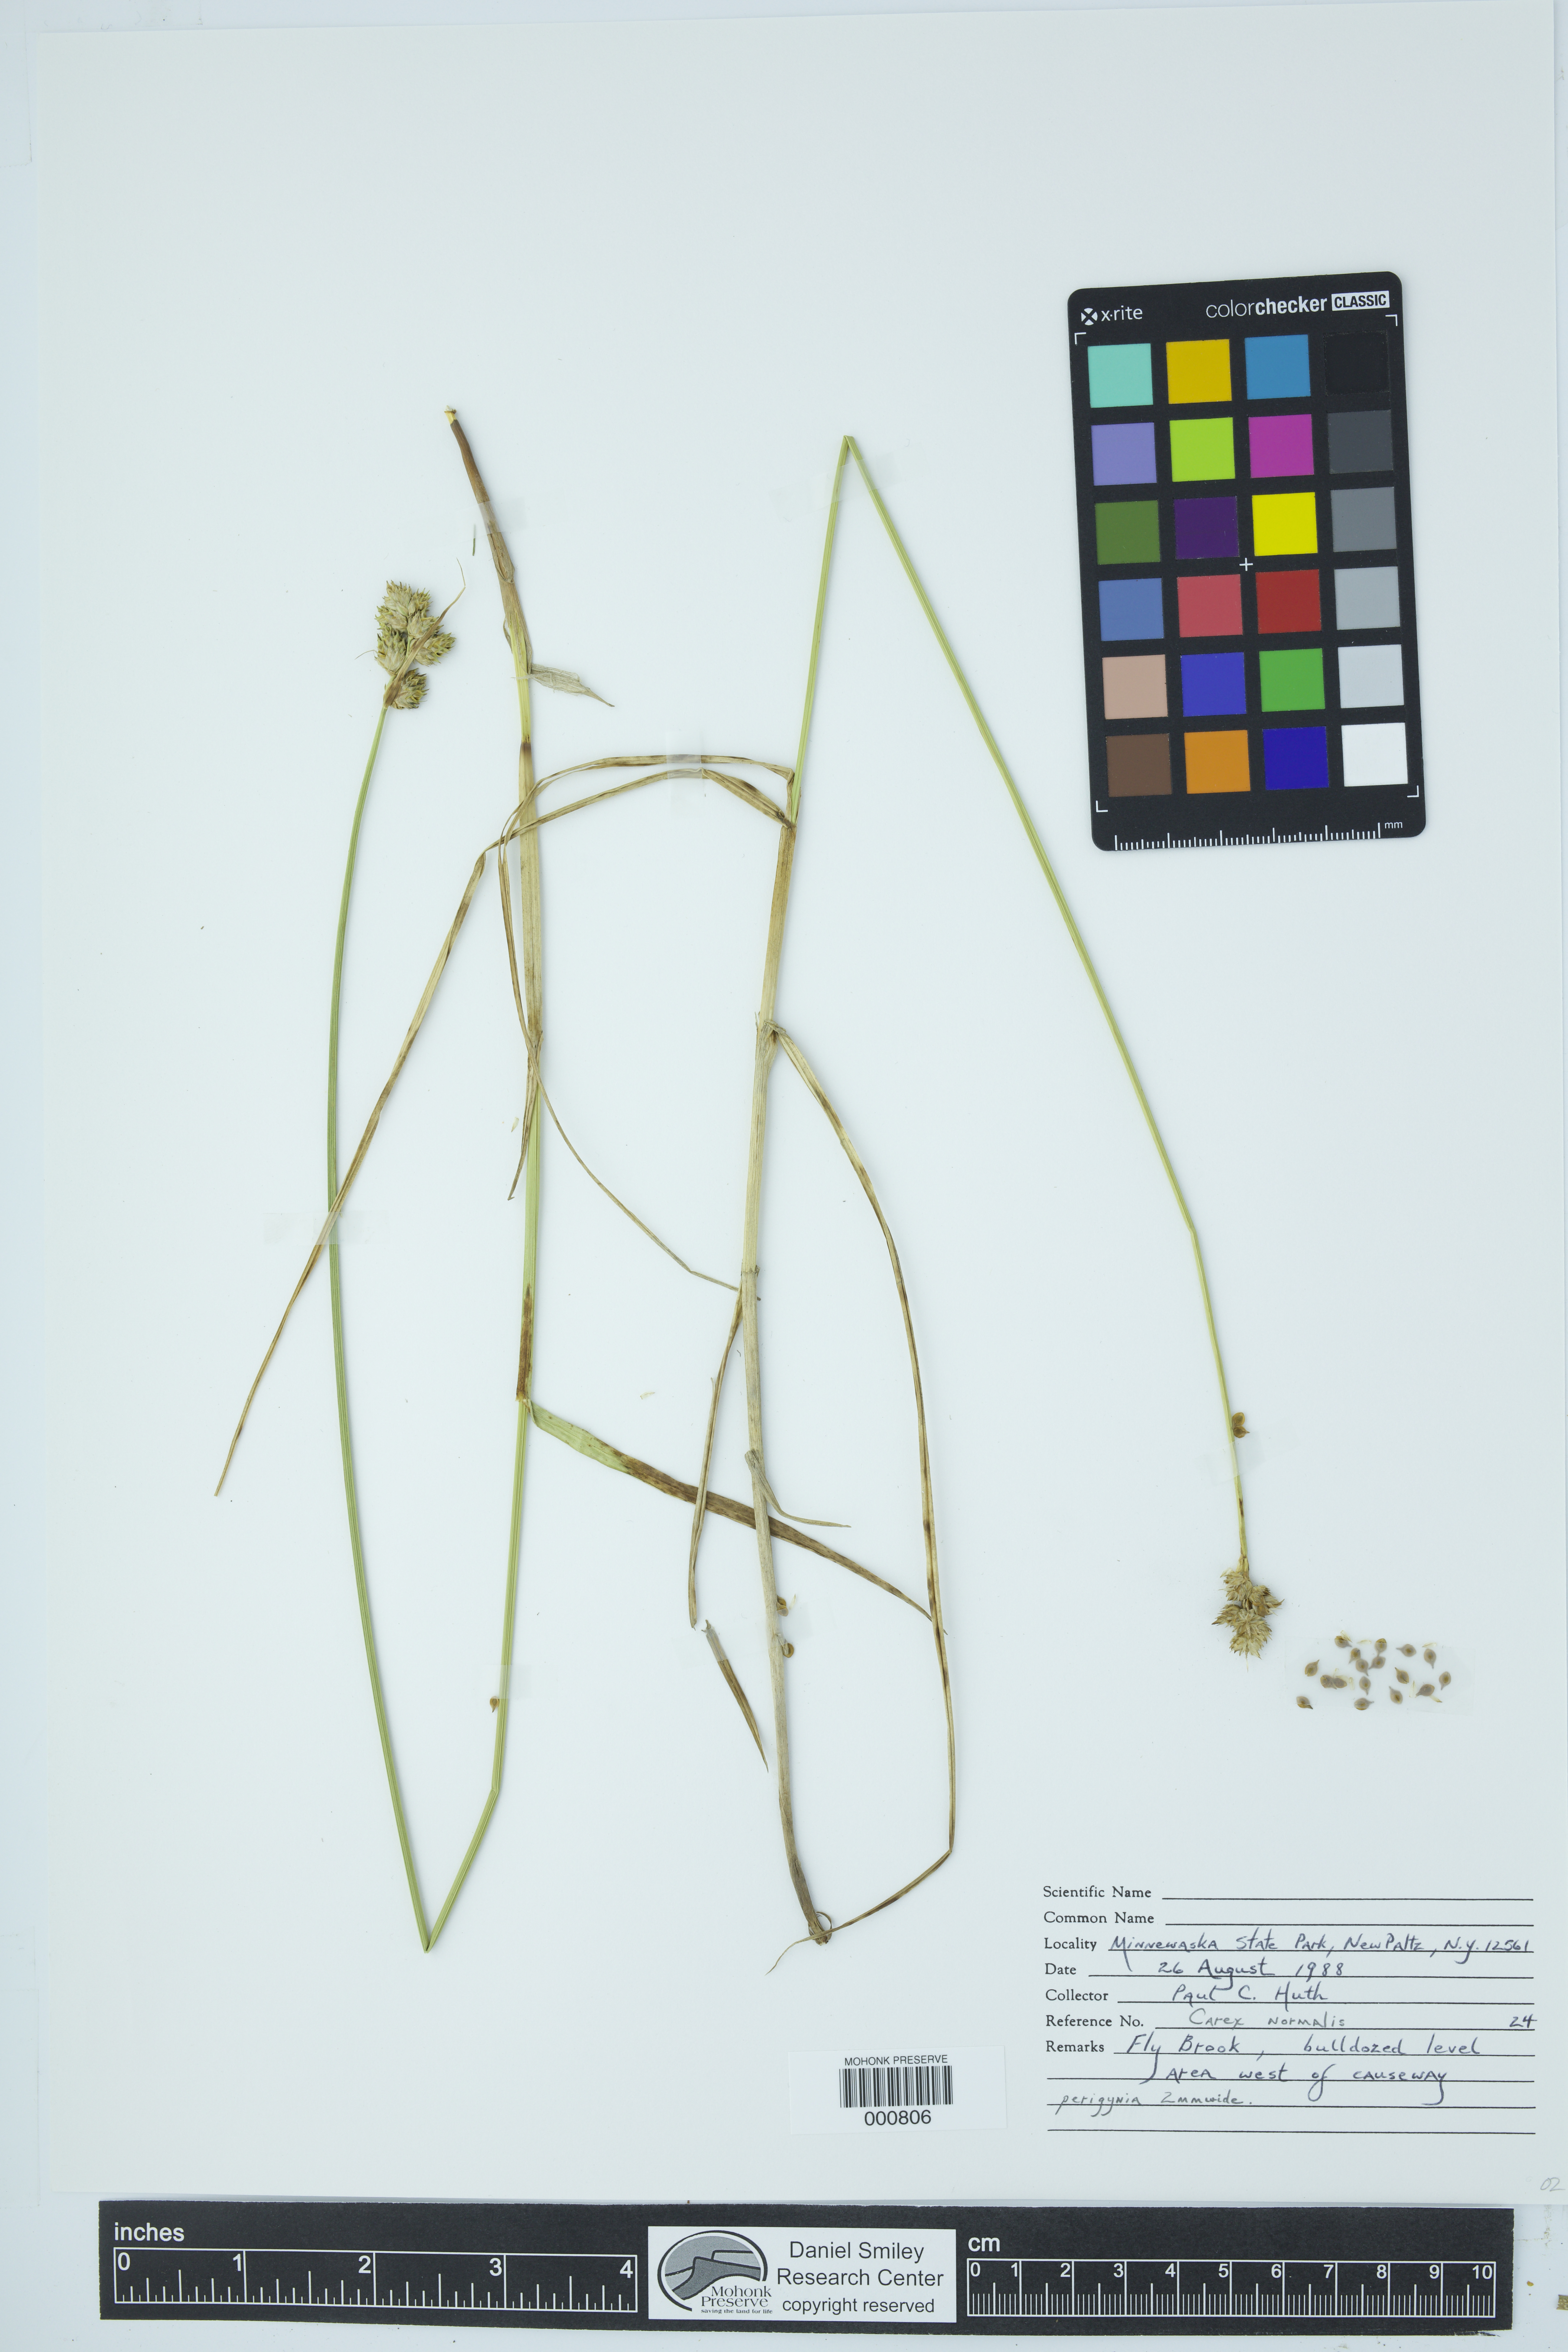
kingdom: Plantae
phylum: Tracheophyta
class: Liliopsida
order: Poales
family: Cyperaceae
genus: Carex
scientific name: Carex normalis
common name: Greater straw sedge
